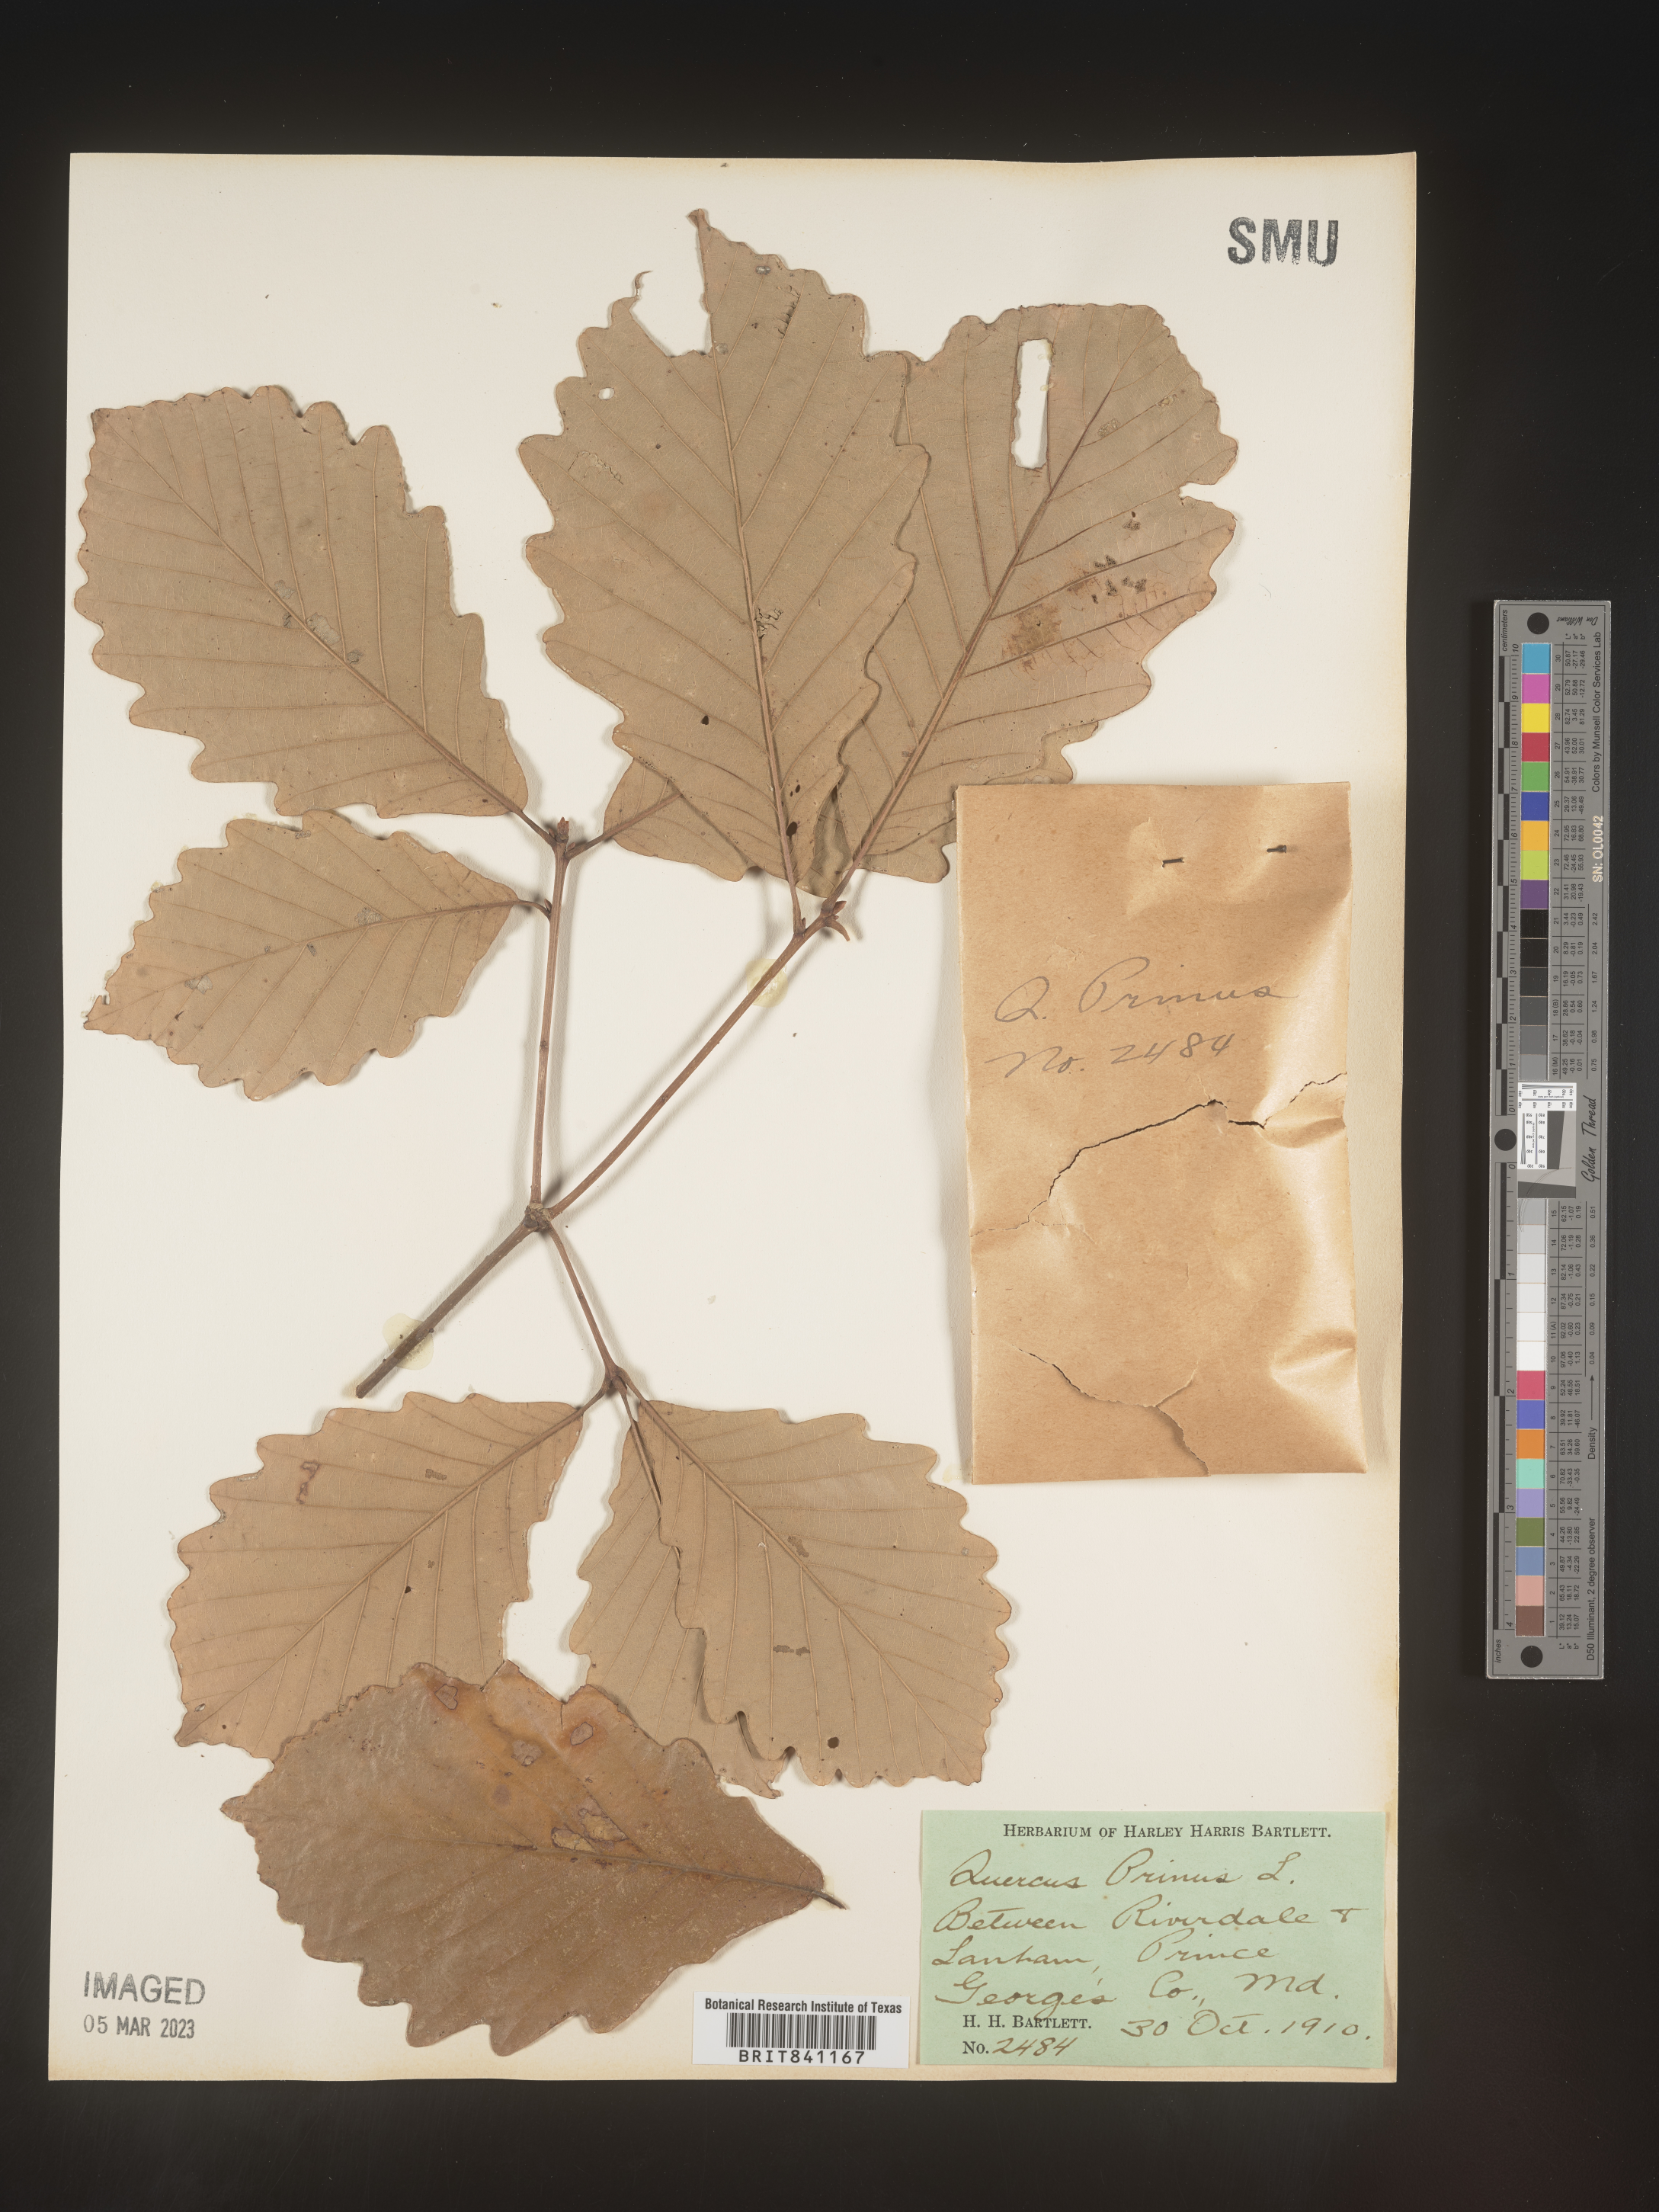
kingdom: Plantae
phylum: Tracheophyta
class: Magnoliopsida
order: Fagales
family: Fagaceae
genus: Quercus
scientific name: Quercus michauxii
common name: Swamp chestnut oak
